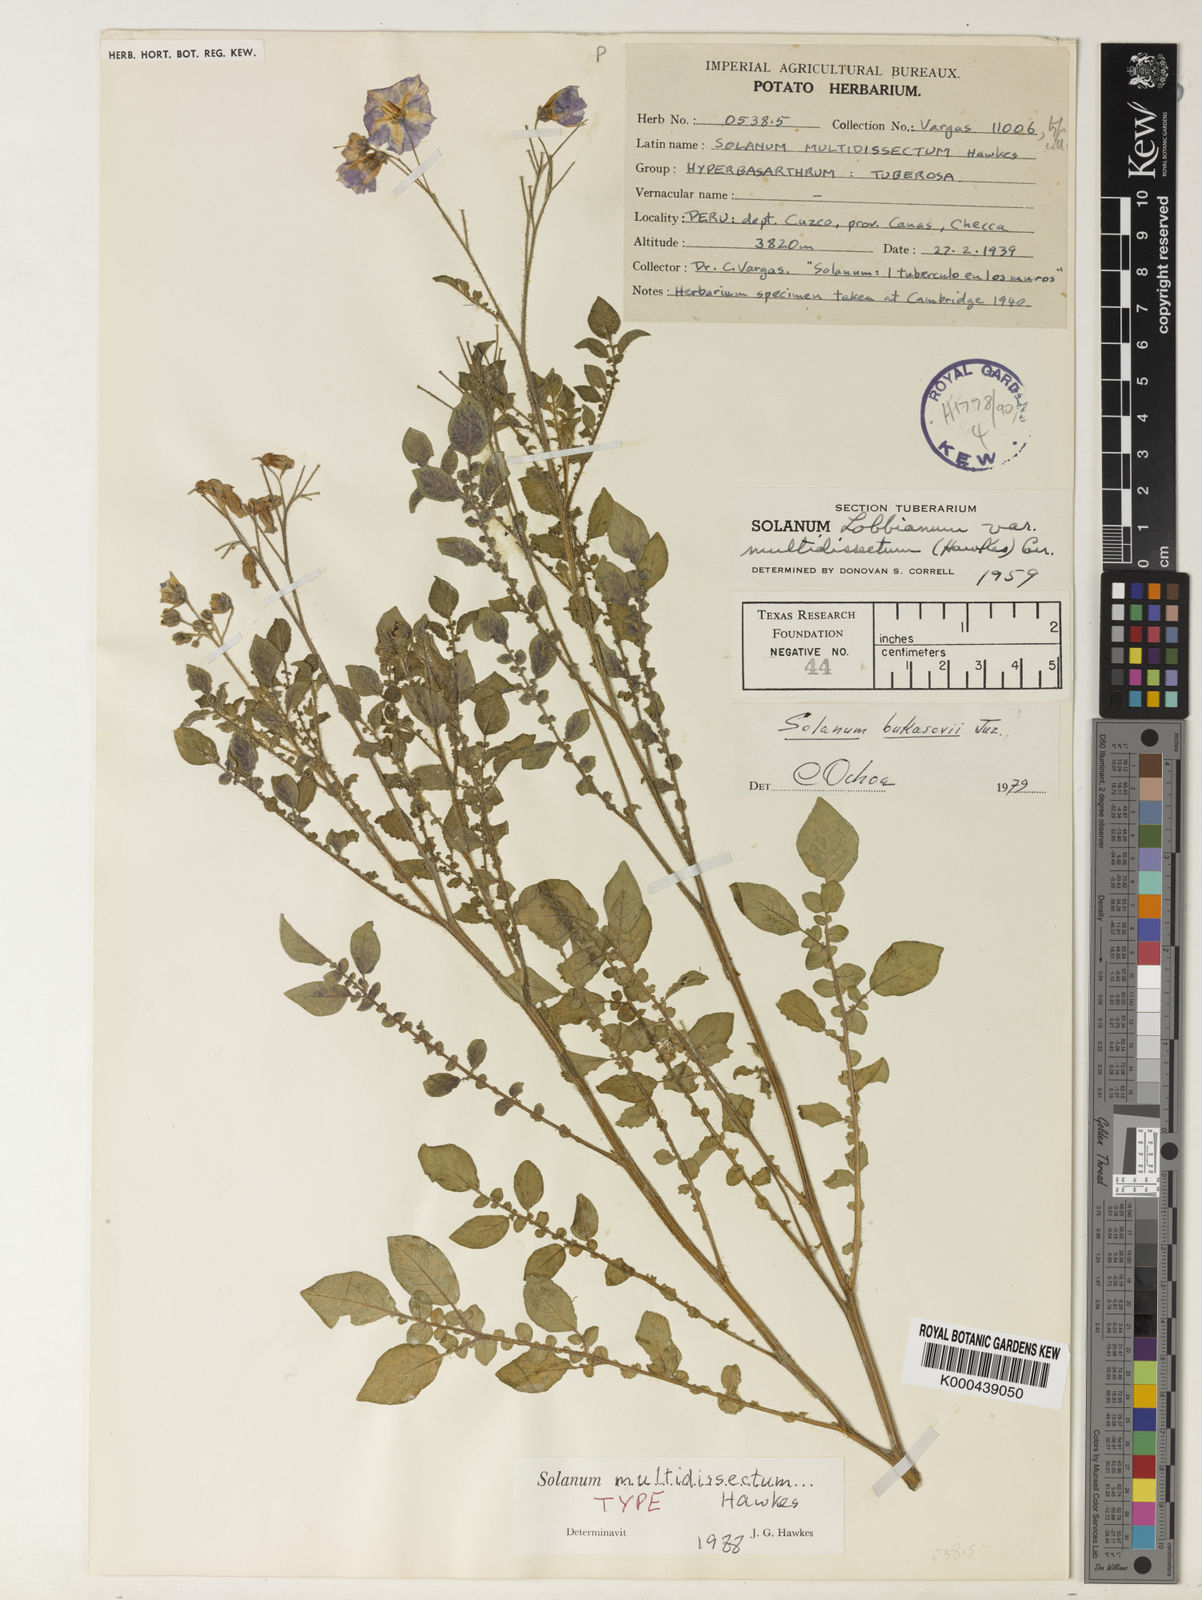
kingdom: Plantae
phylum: Tracheophyta
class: Magnoliopsida
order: Solanales
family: Solanaceae
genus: Solanum
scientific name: Solanum candolleanum
